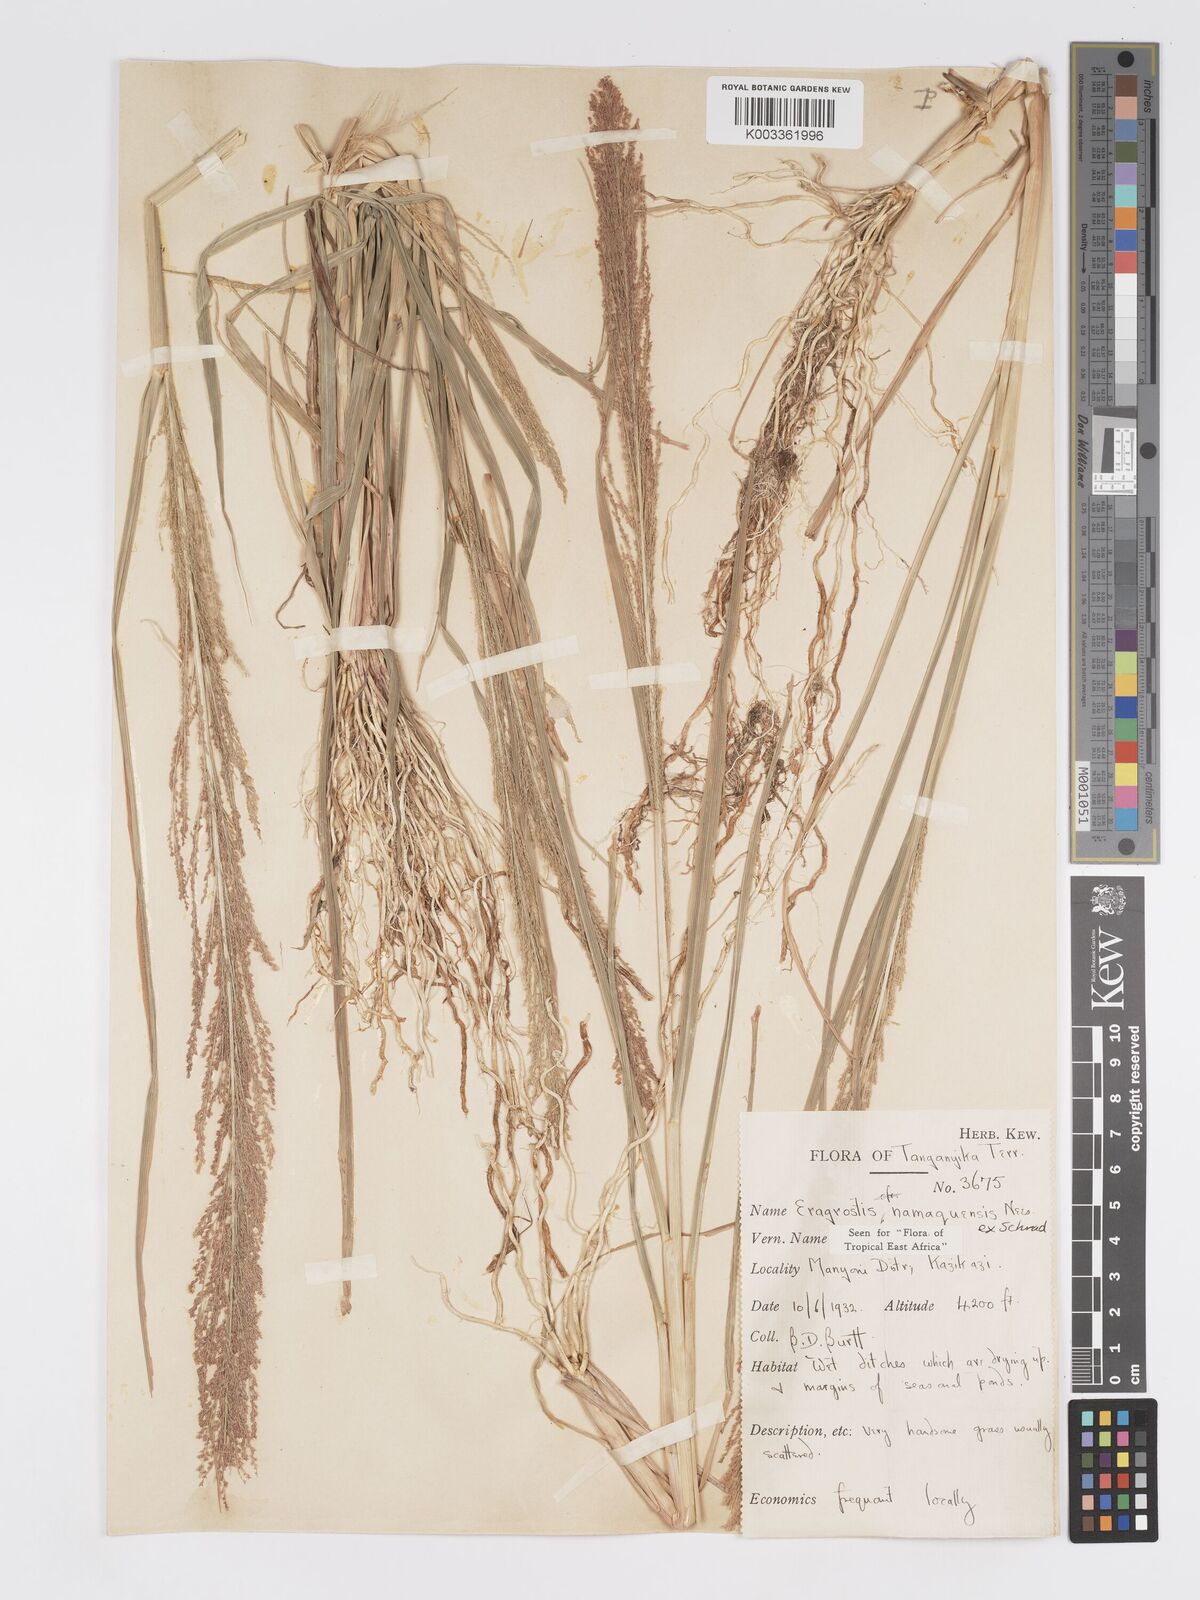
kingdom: Plantae
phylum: Tracheophyta
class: Liliopsida
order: Poales
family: Poaceae
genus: Eragrostis
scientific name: Eragrostis japonica
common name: Pond lovegrass
